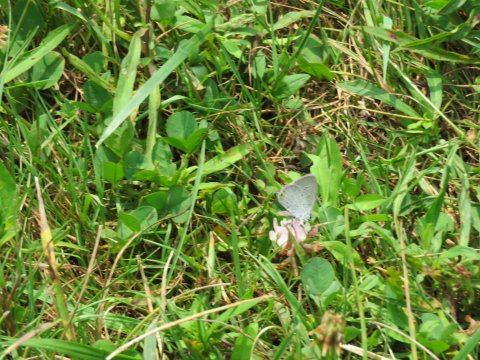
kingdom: Animalia
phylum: Arthropoda
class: Insecta
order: Lepidoptera
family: Lycaenidae
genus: Elkalyce
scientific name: Elkalyce comyntas
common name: Eastern Tailed-Blue
